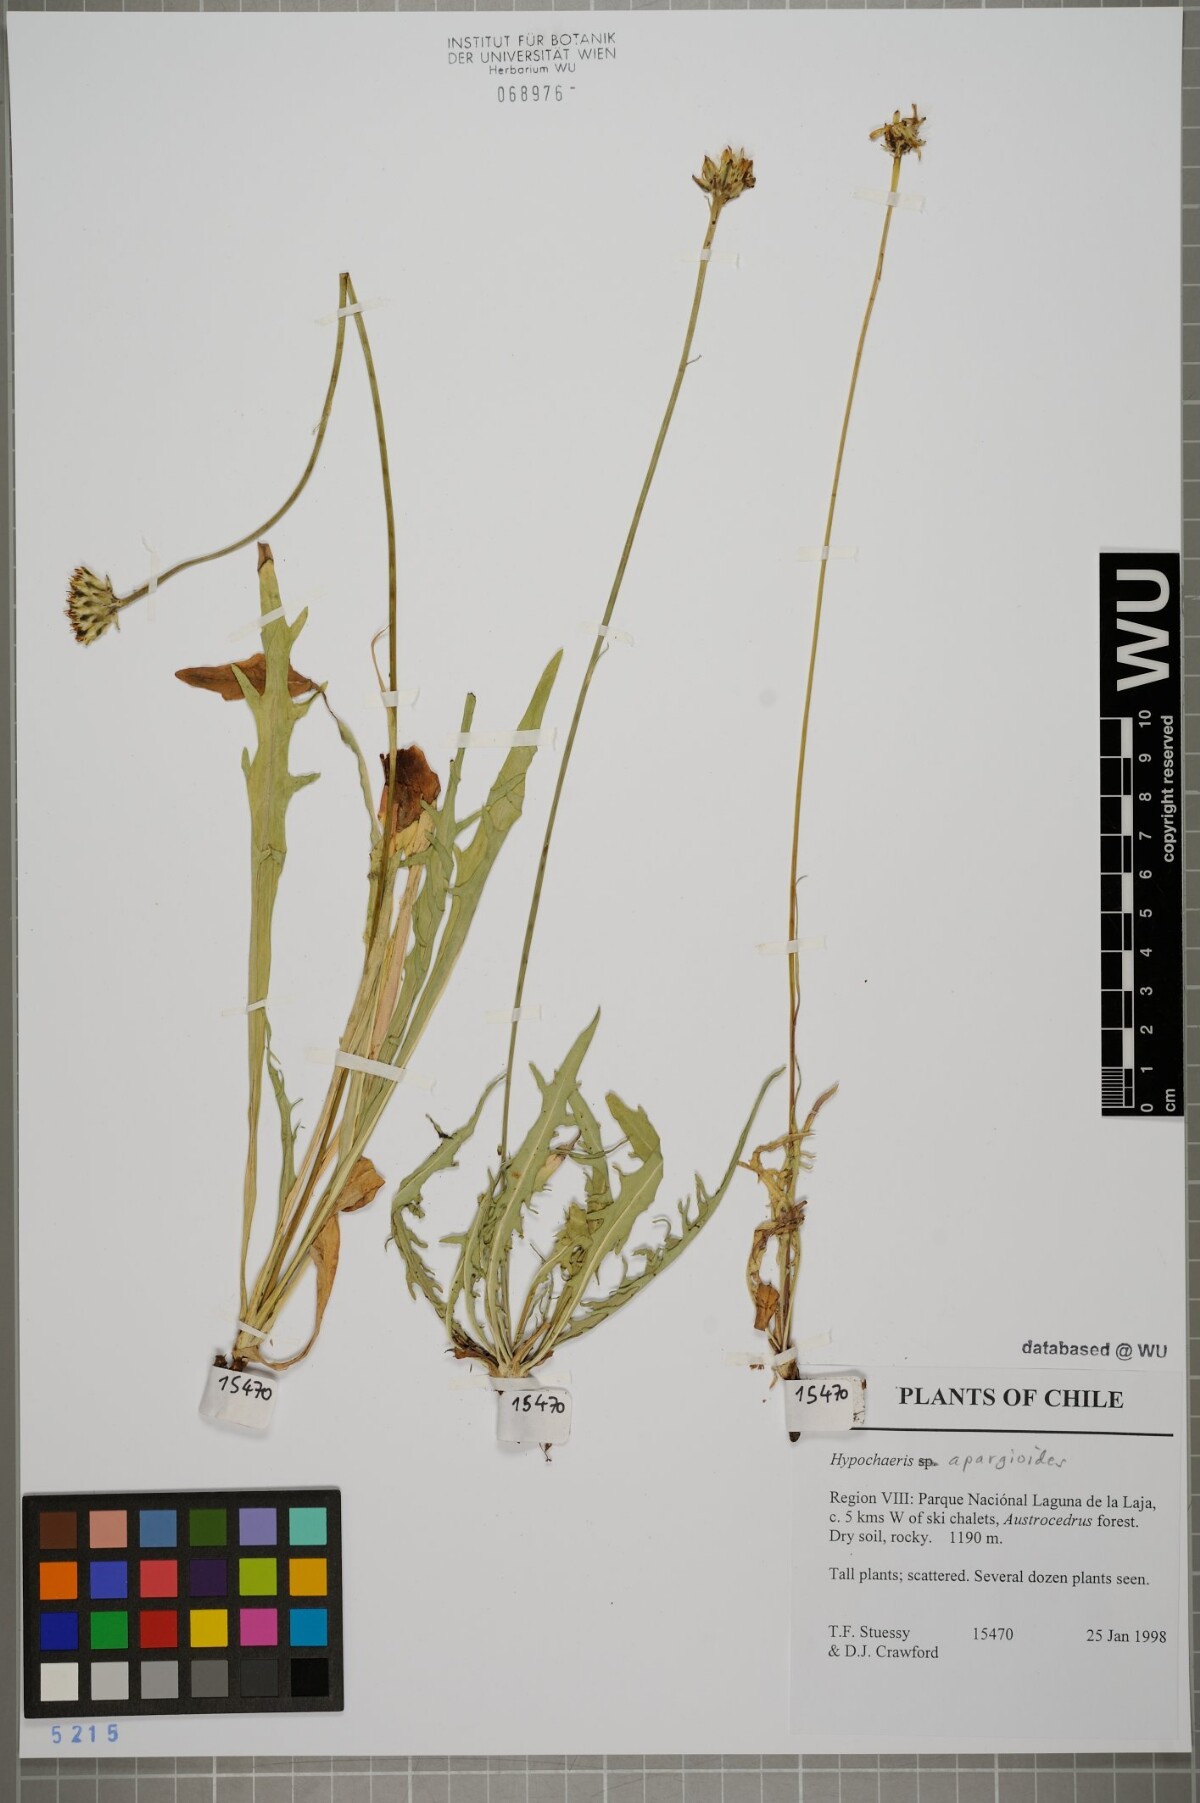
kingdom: Plantae
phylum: Tracheophyta
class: Magnoliopsida
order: Asterales
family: Asteraceae
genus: Hypochaeris
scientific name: Hypochaeris apargioides
